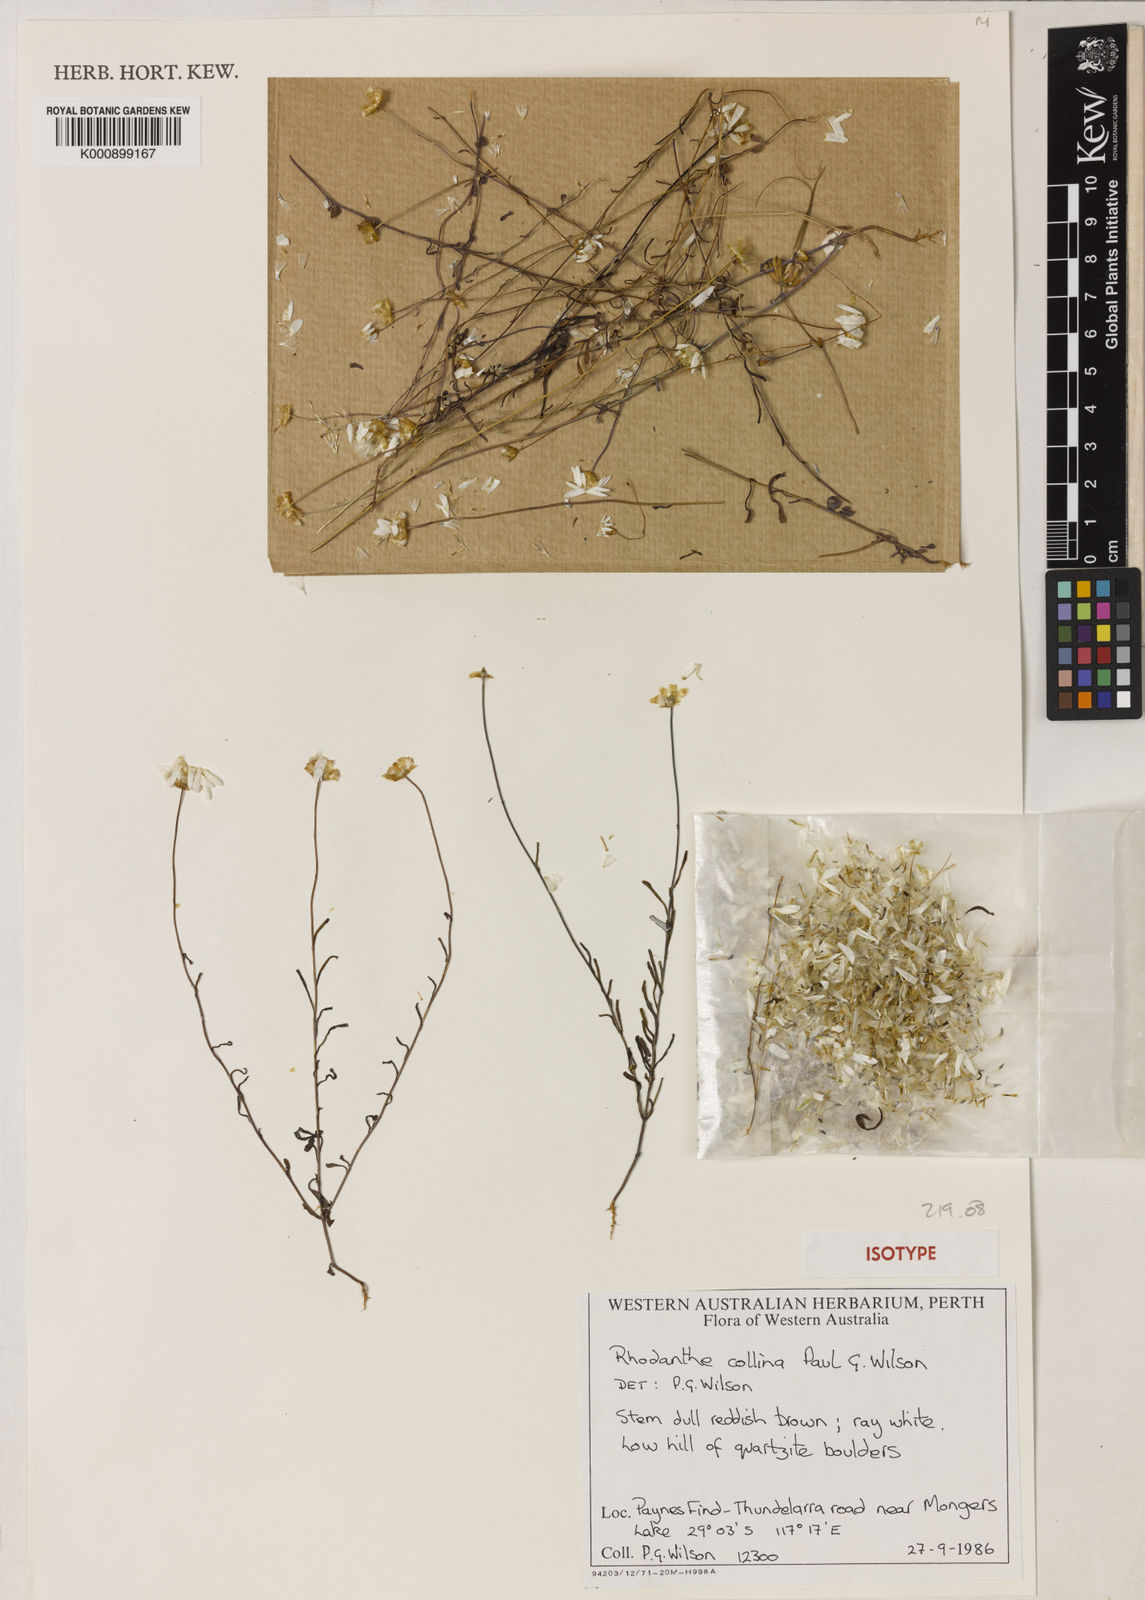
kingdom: Plantae
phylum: Tracheophyta
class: Magnoliopsida
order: Asterales
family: Asteraceae
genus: Rhodanthe
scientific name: Rhodanthe collina
